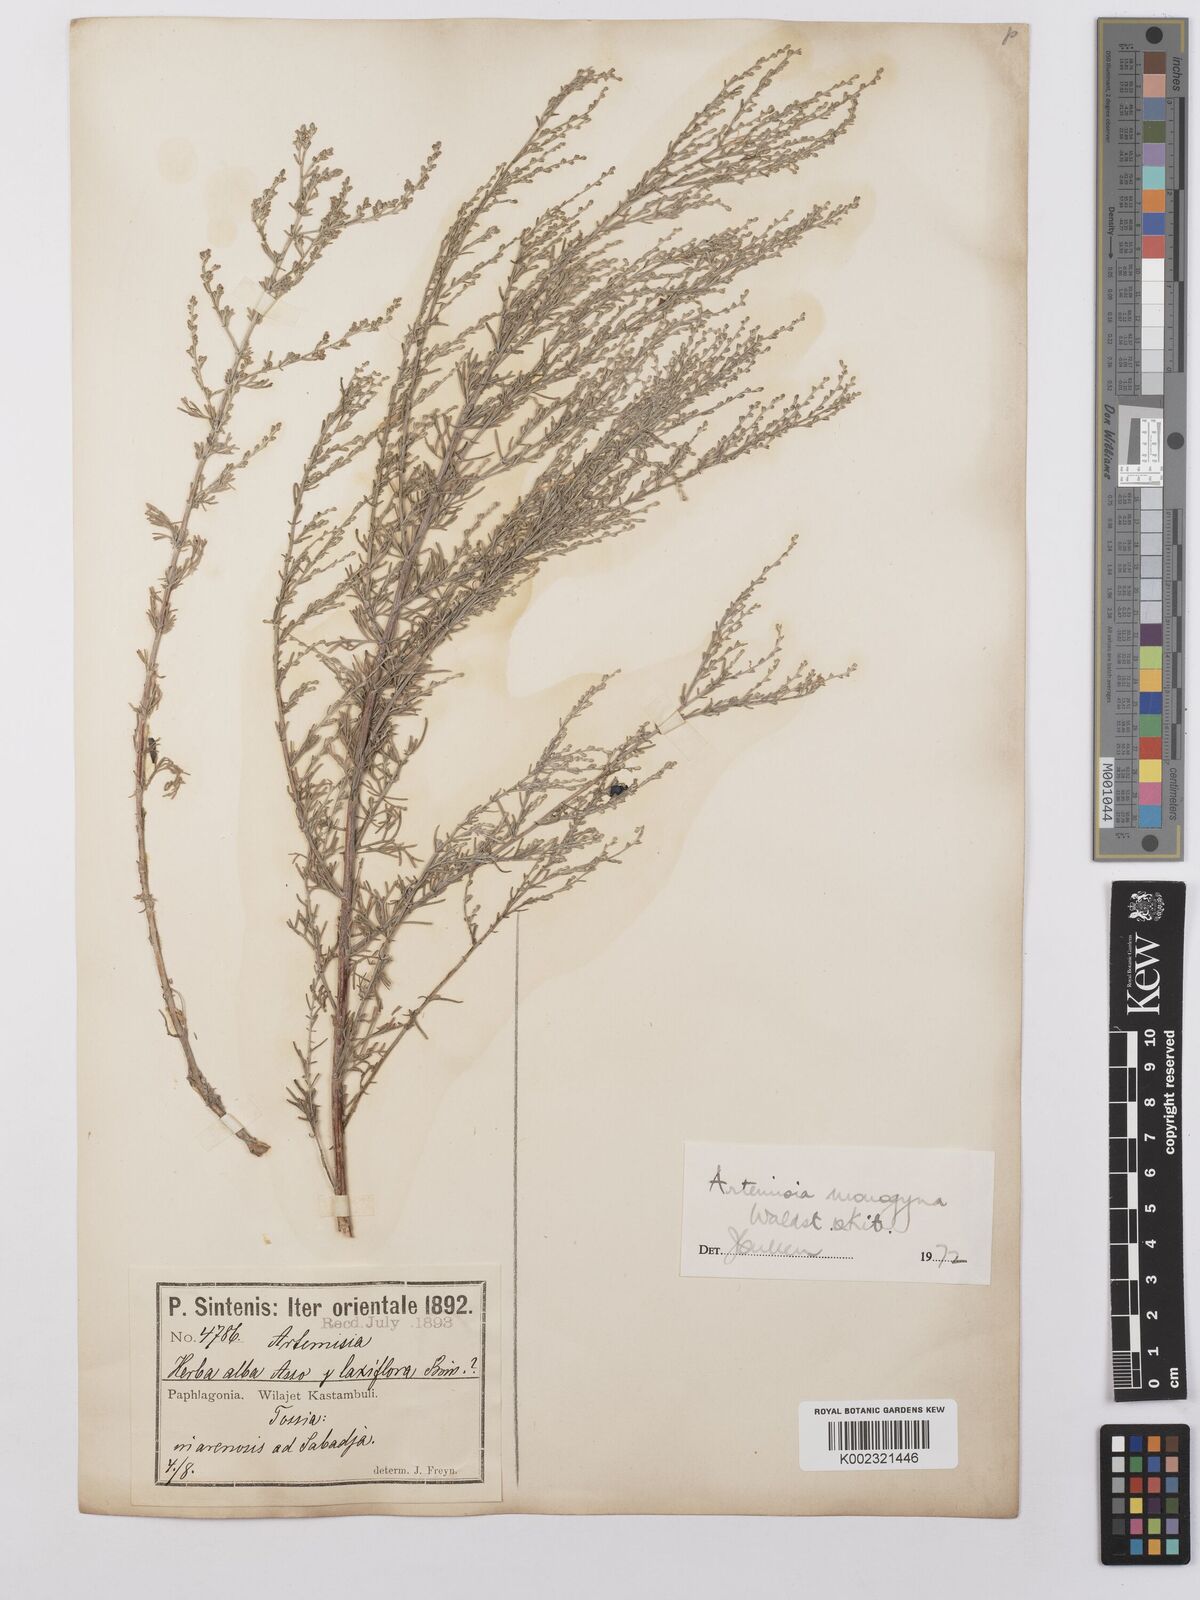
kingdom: Plantae
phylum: Tracheophyta
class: Magnoliopsida
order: Asterales
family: Asteraceae
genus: Artemisia
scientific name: Artemisia santonicum
